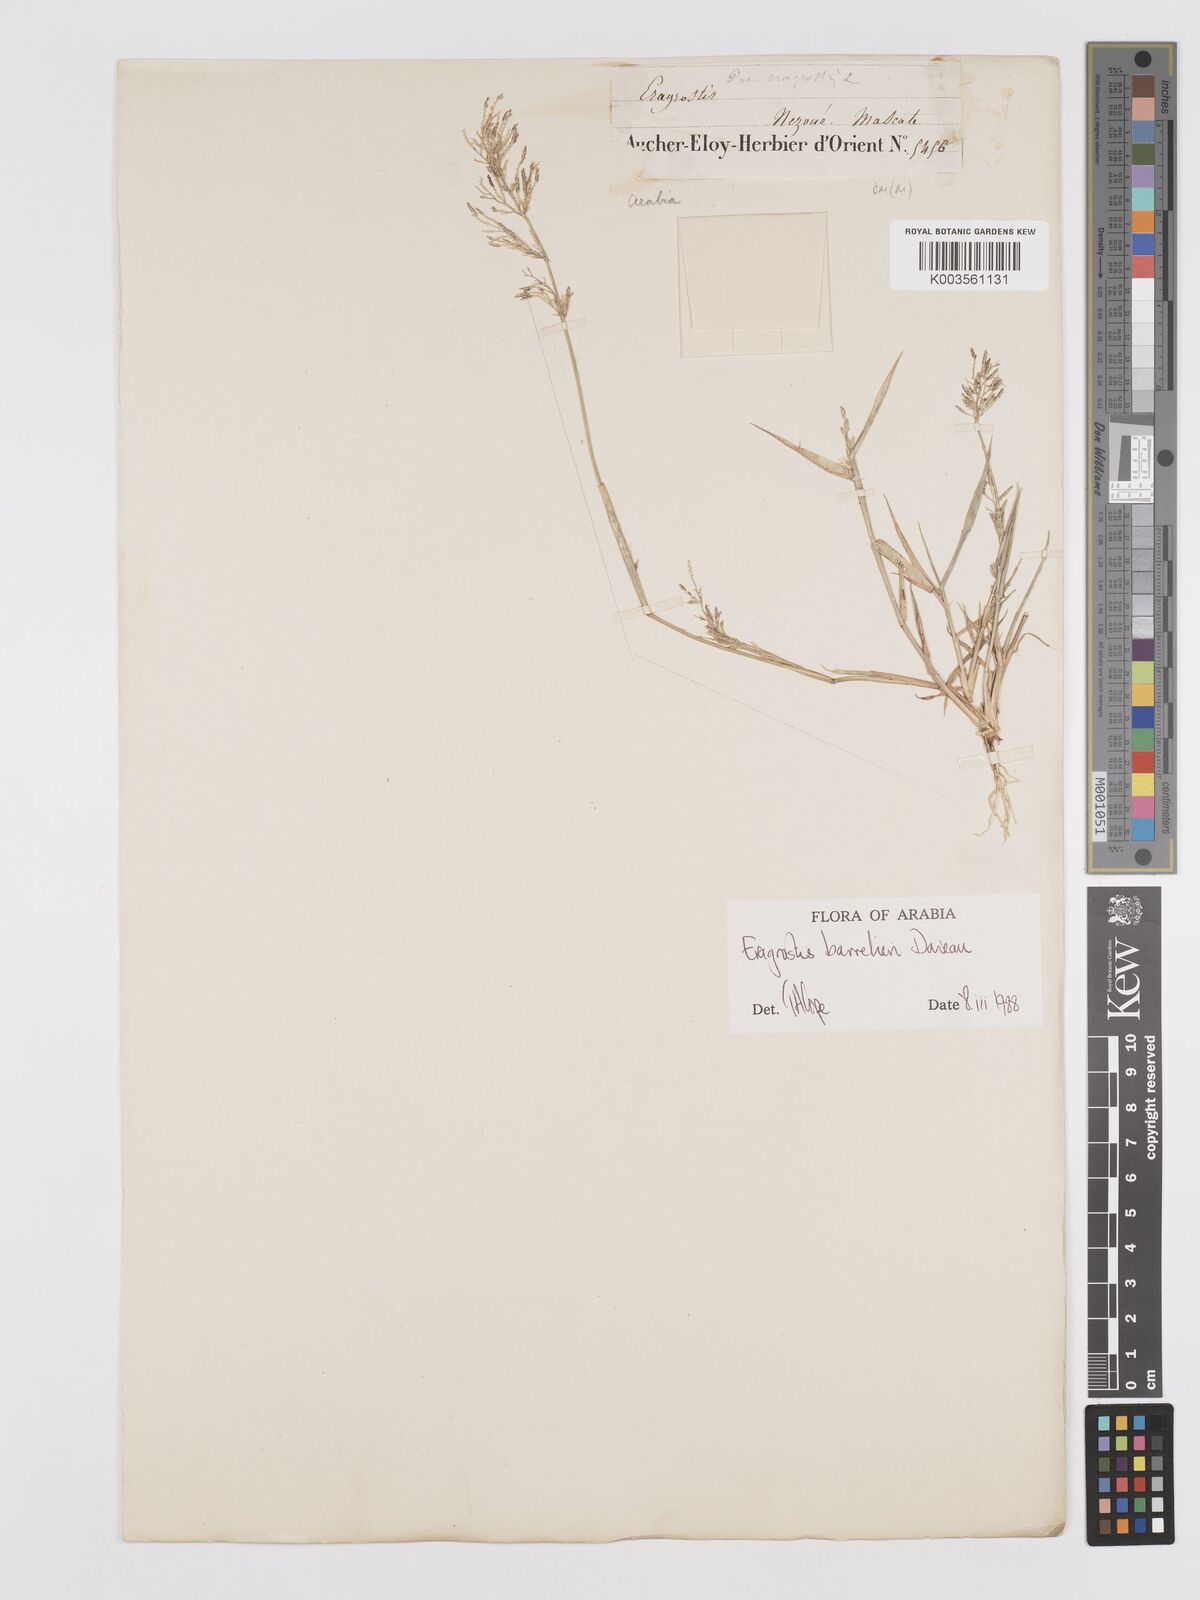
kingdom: Plantae
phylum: Tracheophyta
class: Liliopsida
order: Poales
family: Poaceae
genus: Eragrostis
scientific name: Eragrostis barrelieri
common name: Mediterranean lovegrass
